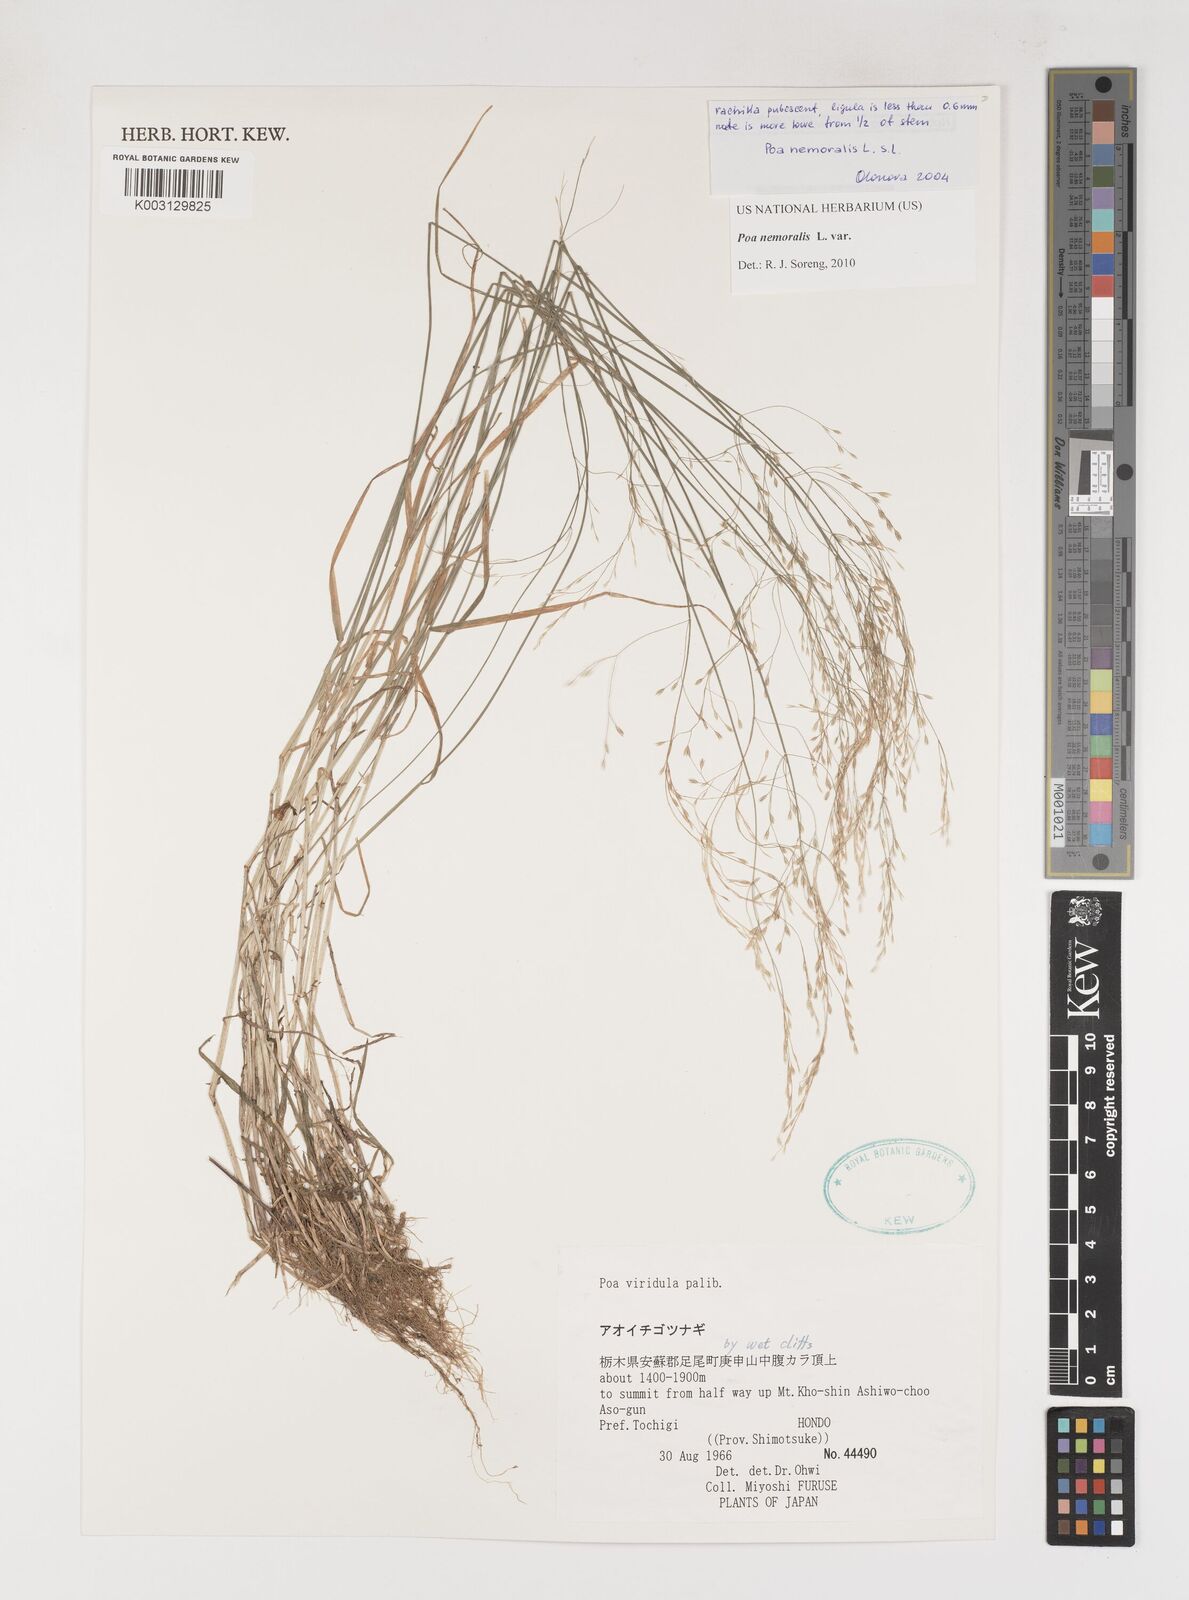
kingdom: Plantae
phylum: Tracheophyta
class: Liliopsida
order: Poales
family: Poaceae
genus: Poa
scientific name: Poa nemoralis
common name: Wood bluegrass
